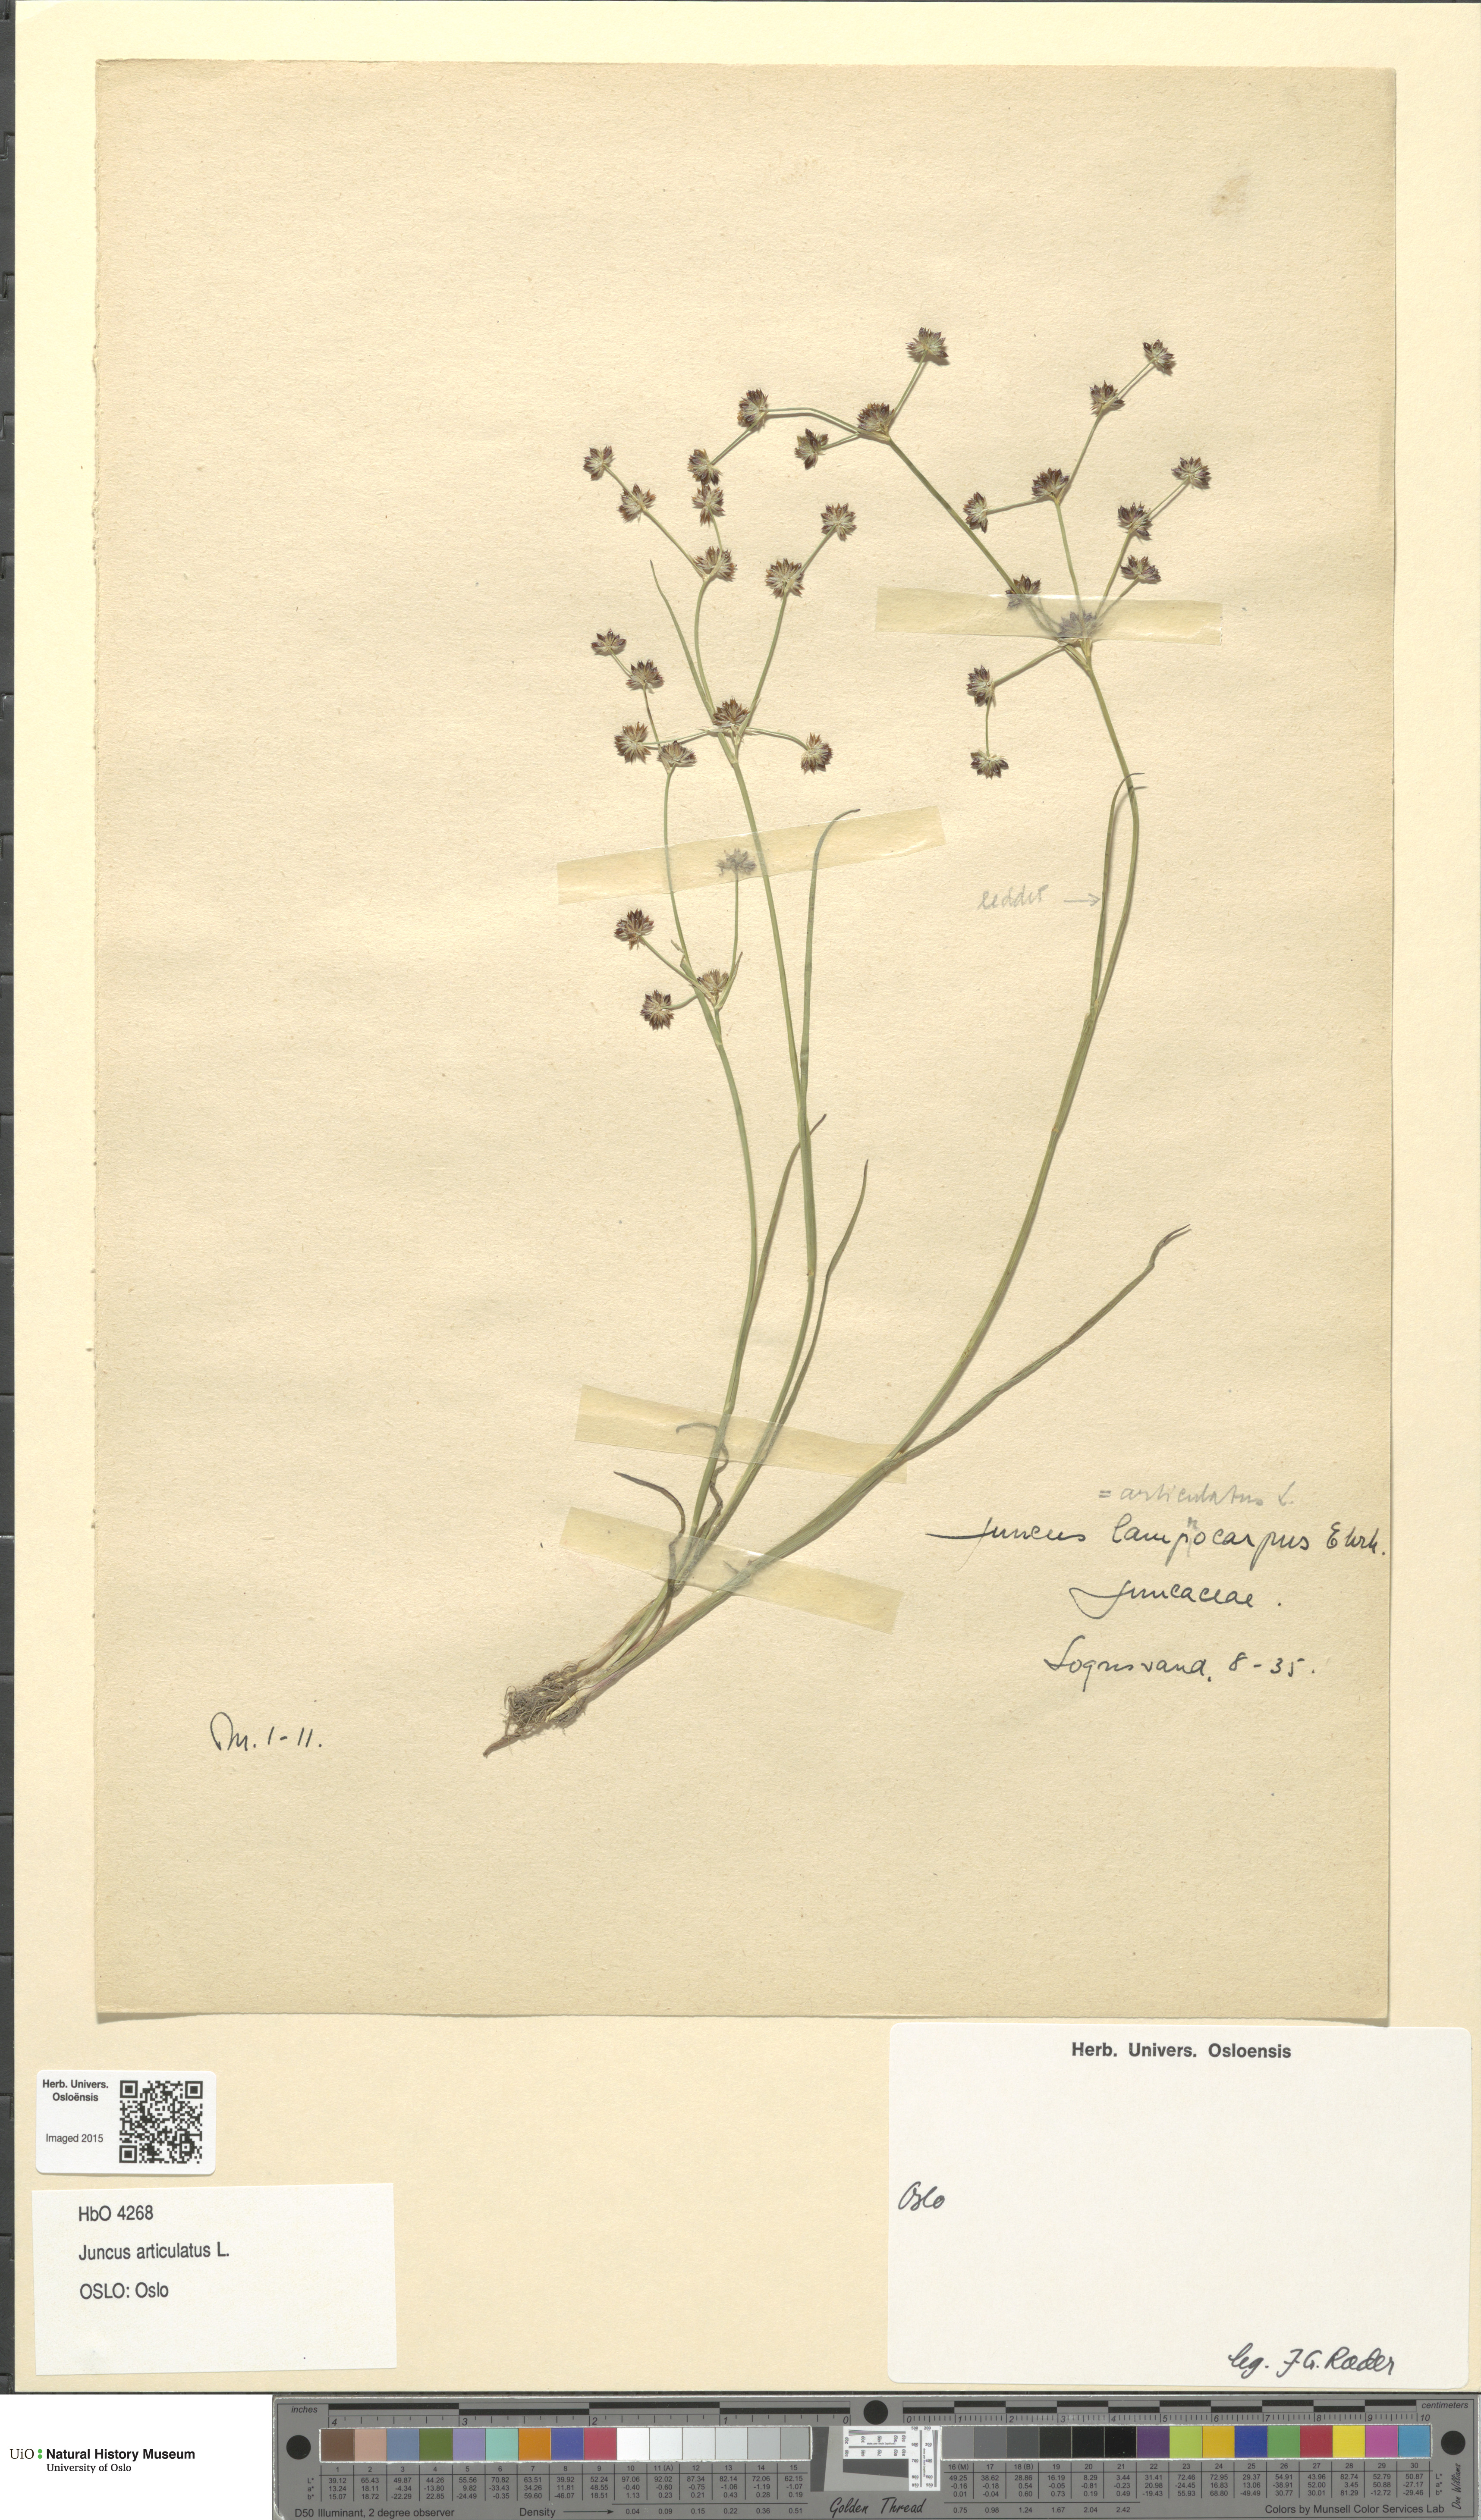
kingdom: Plantae
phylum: Tracheophyta
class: Liliopsida
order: Poales
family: Juncaceae
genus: Juncus
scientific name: Juncus articulatus
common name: Jointed rush
